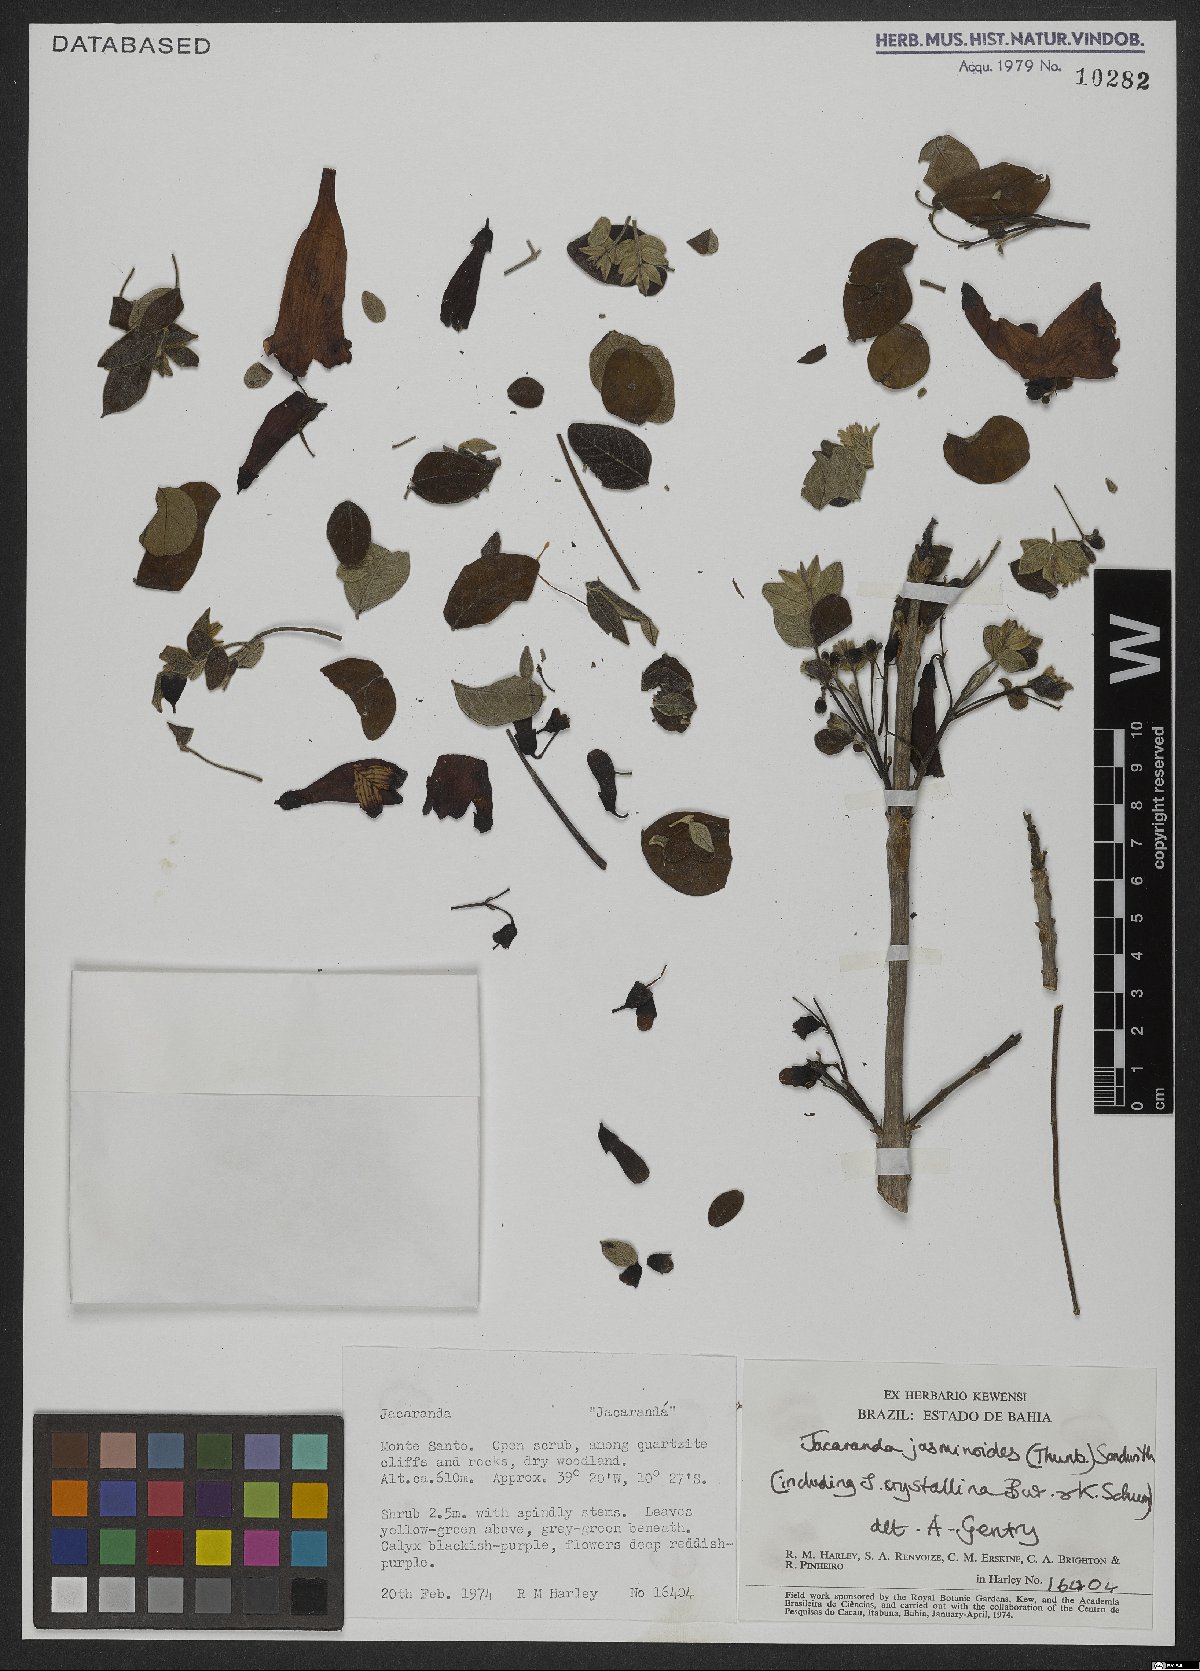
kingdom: Plantae
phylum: Tracheophyta
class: Magnoliopsida
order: Lamiales
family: Bignoniaceae
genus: Jacaranda
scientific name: Jacaranda jasminoides
